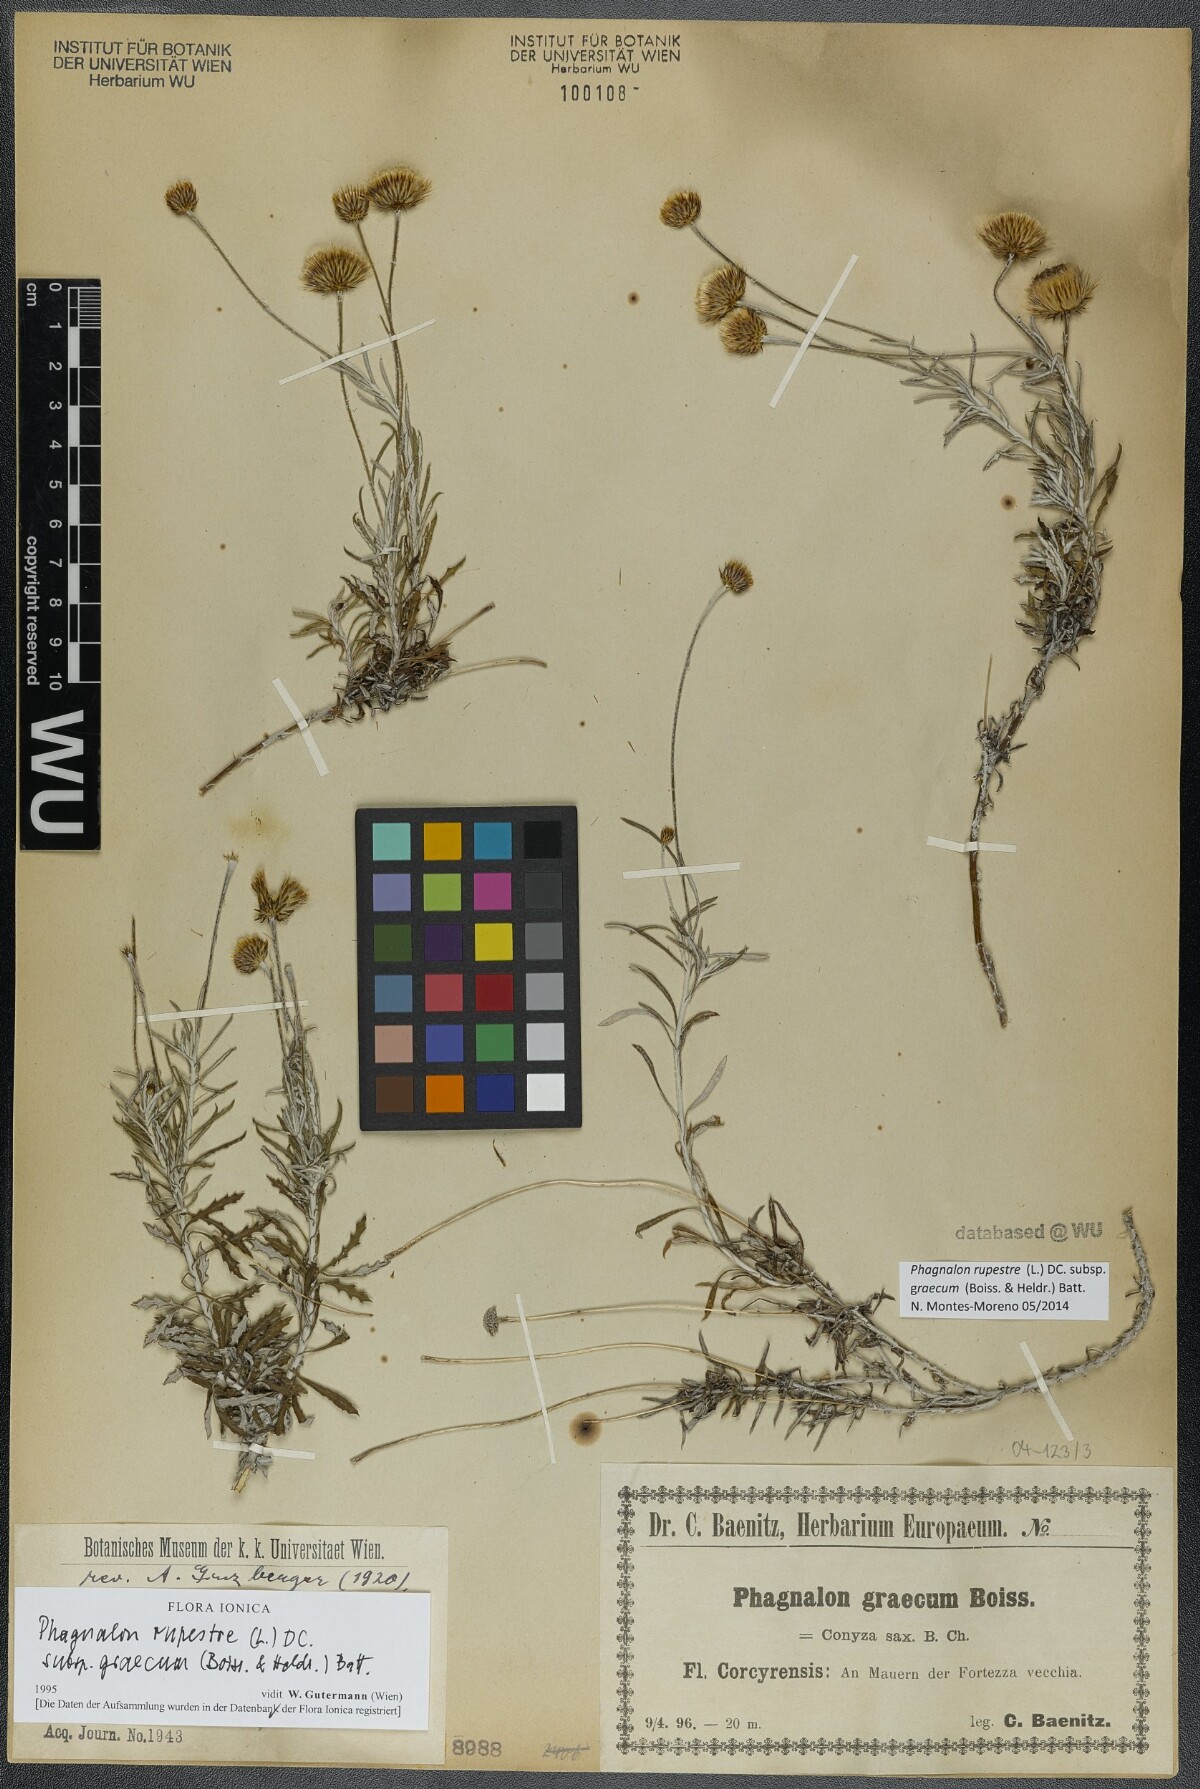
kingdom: Plantae
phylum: Tracheophyta
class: Magnoliopsida
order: Asterales
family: Asteraceae
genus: Phagnalon
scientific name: Phagnalon graecum
